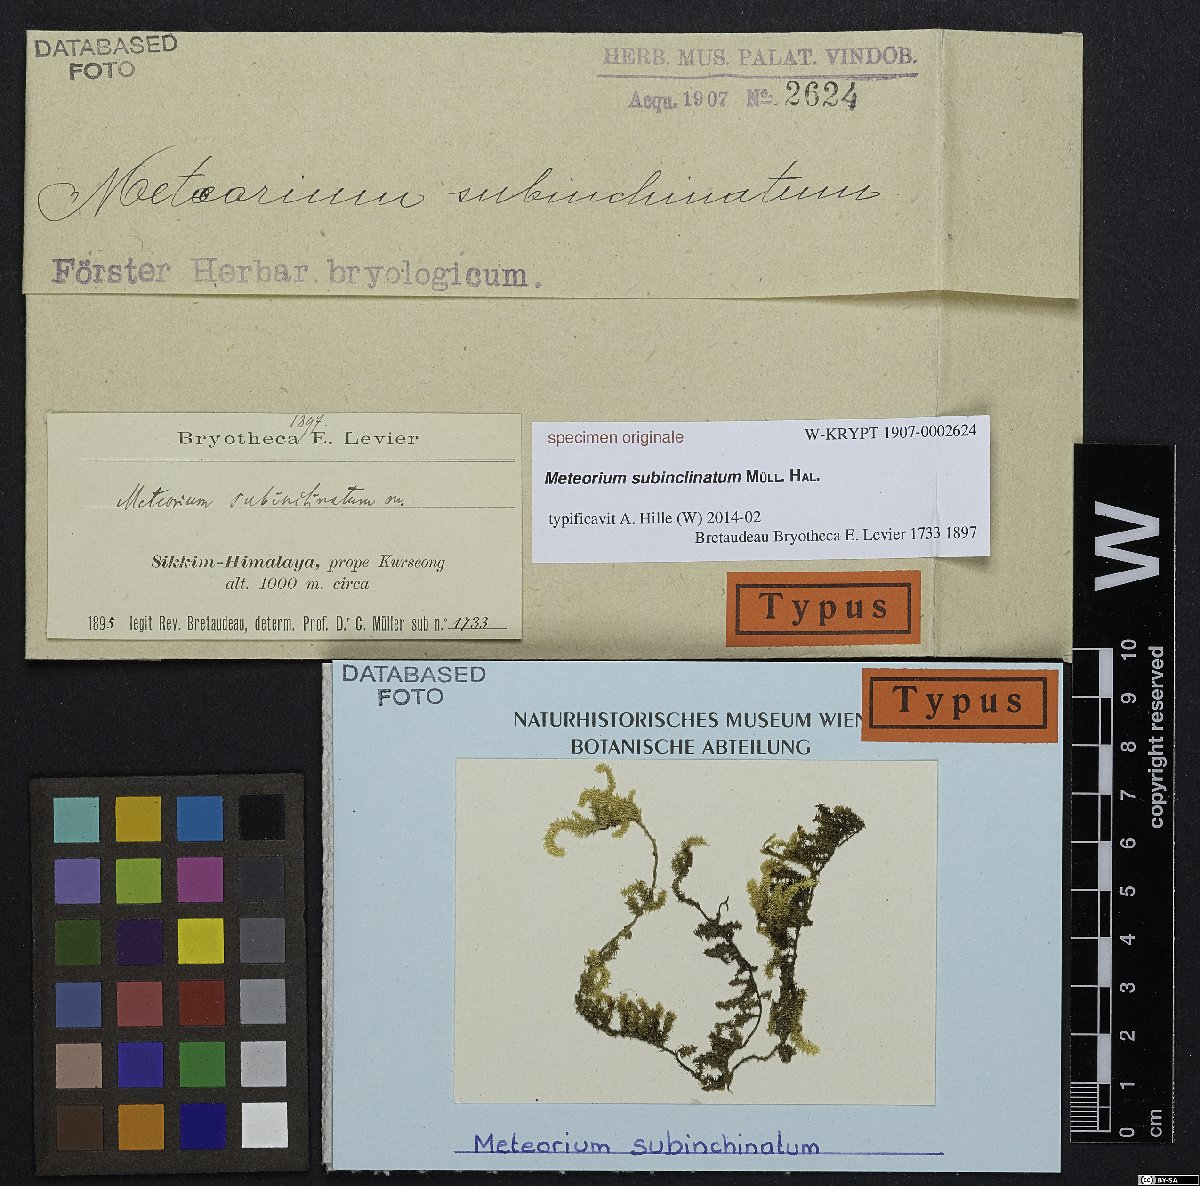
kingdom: Plantae
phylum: Bryophyta
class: Bryopsida
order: Hypnales
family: Meteoriaceae
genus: Meteoriopsis
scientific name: Meteoriopsis reclinata
